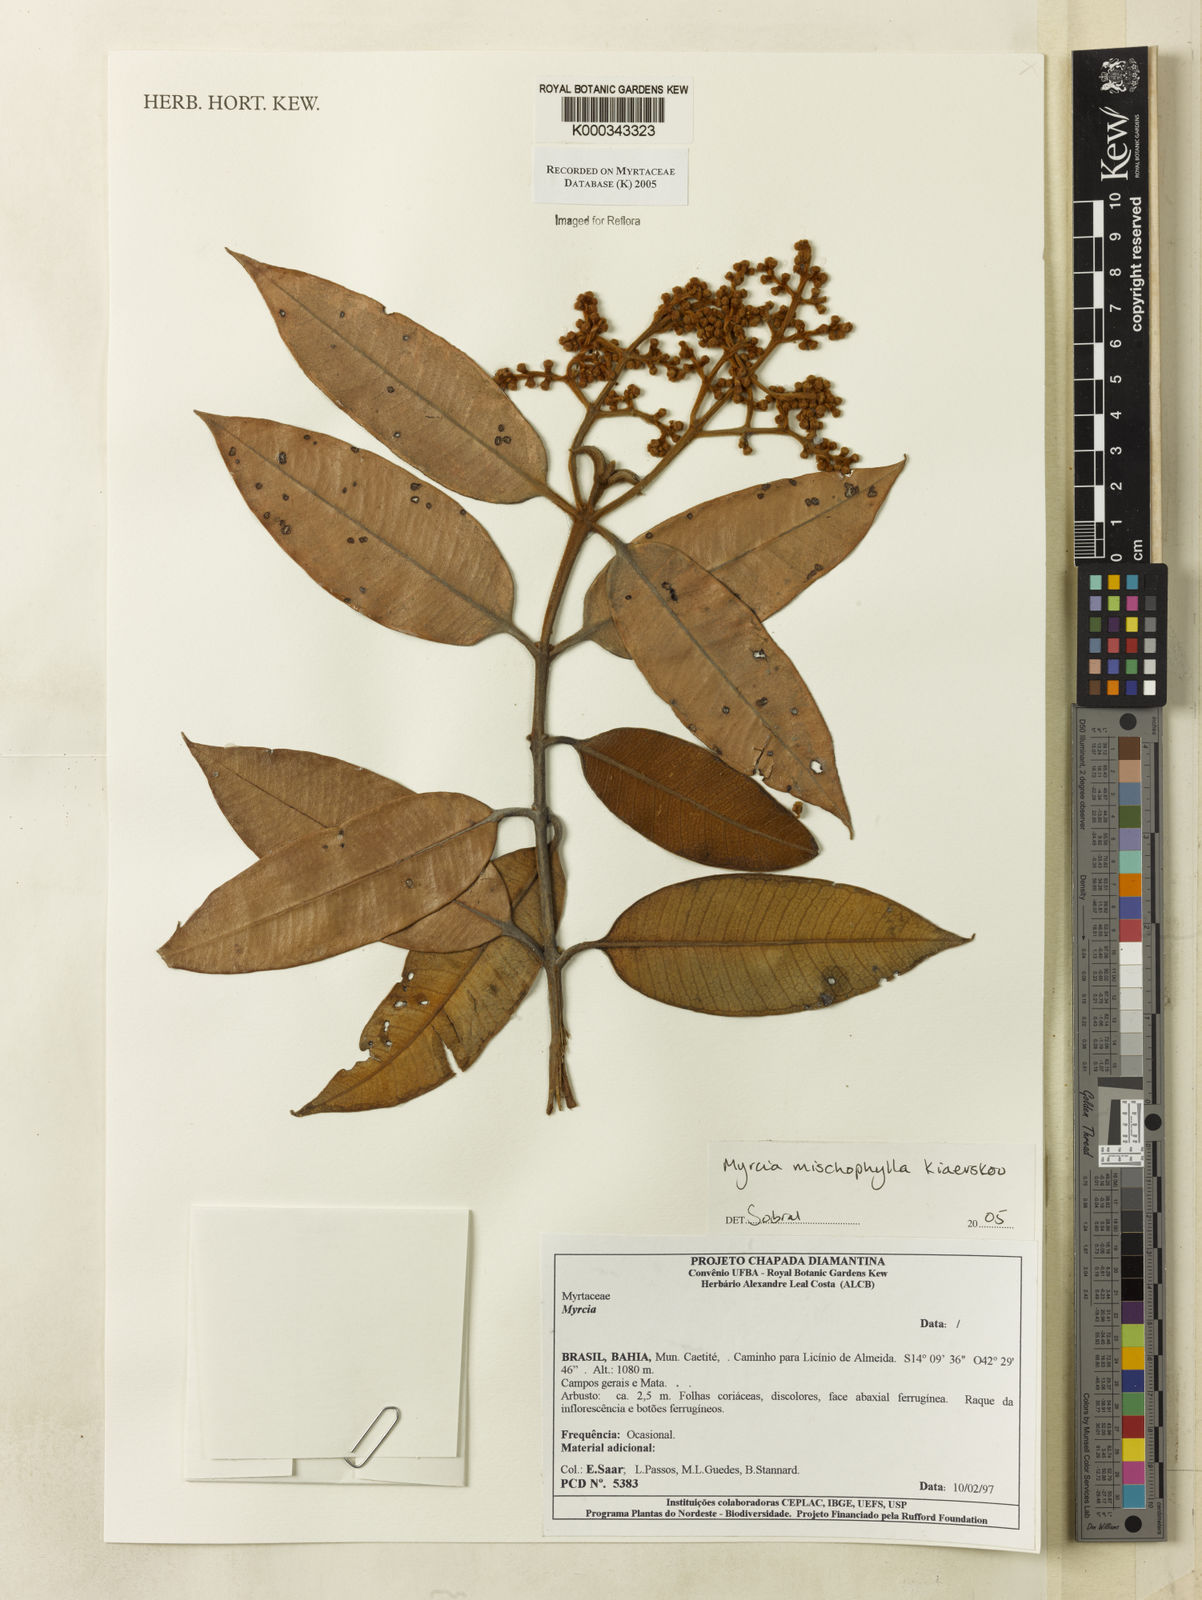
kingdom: Plantae
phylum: Tracheophyta
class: Magnoliopsida
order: Myrtales
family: Myrtaceae
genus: Myrcia
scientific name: Myrcia mischophylla
